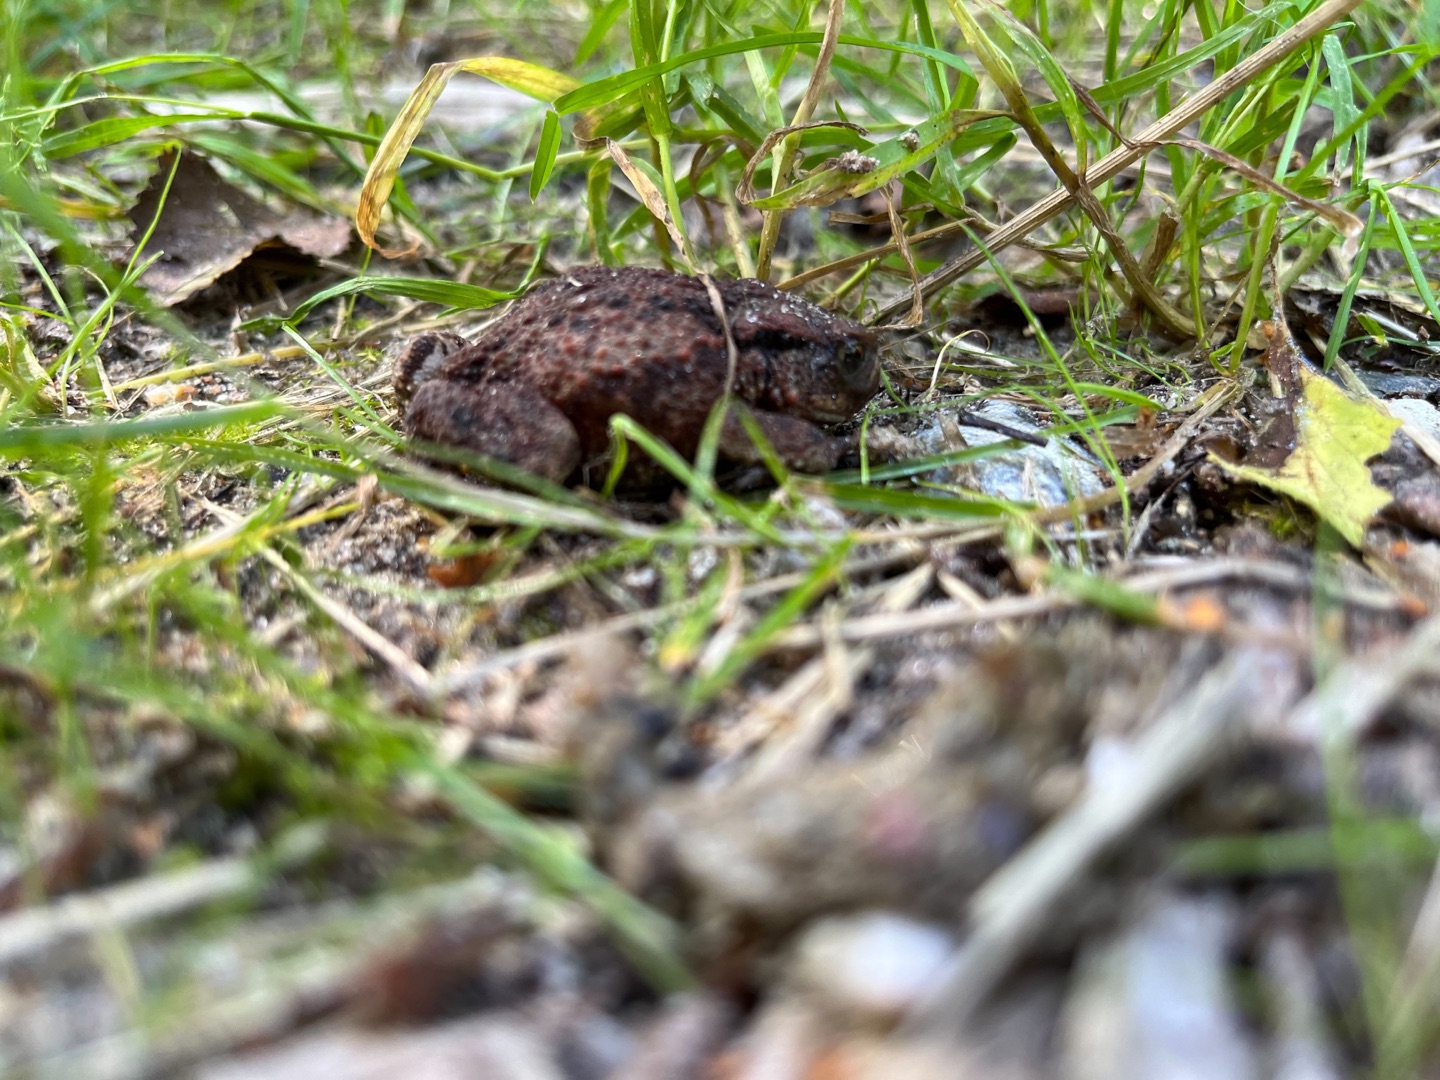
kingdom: Animalia
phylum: Chordata
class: Amphibia
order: Anura
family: Bufonidae
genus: Bufo
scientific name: Bufo bufo
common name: Skrubtudse
